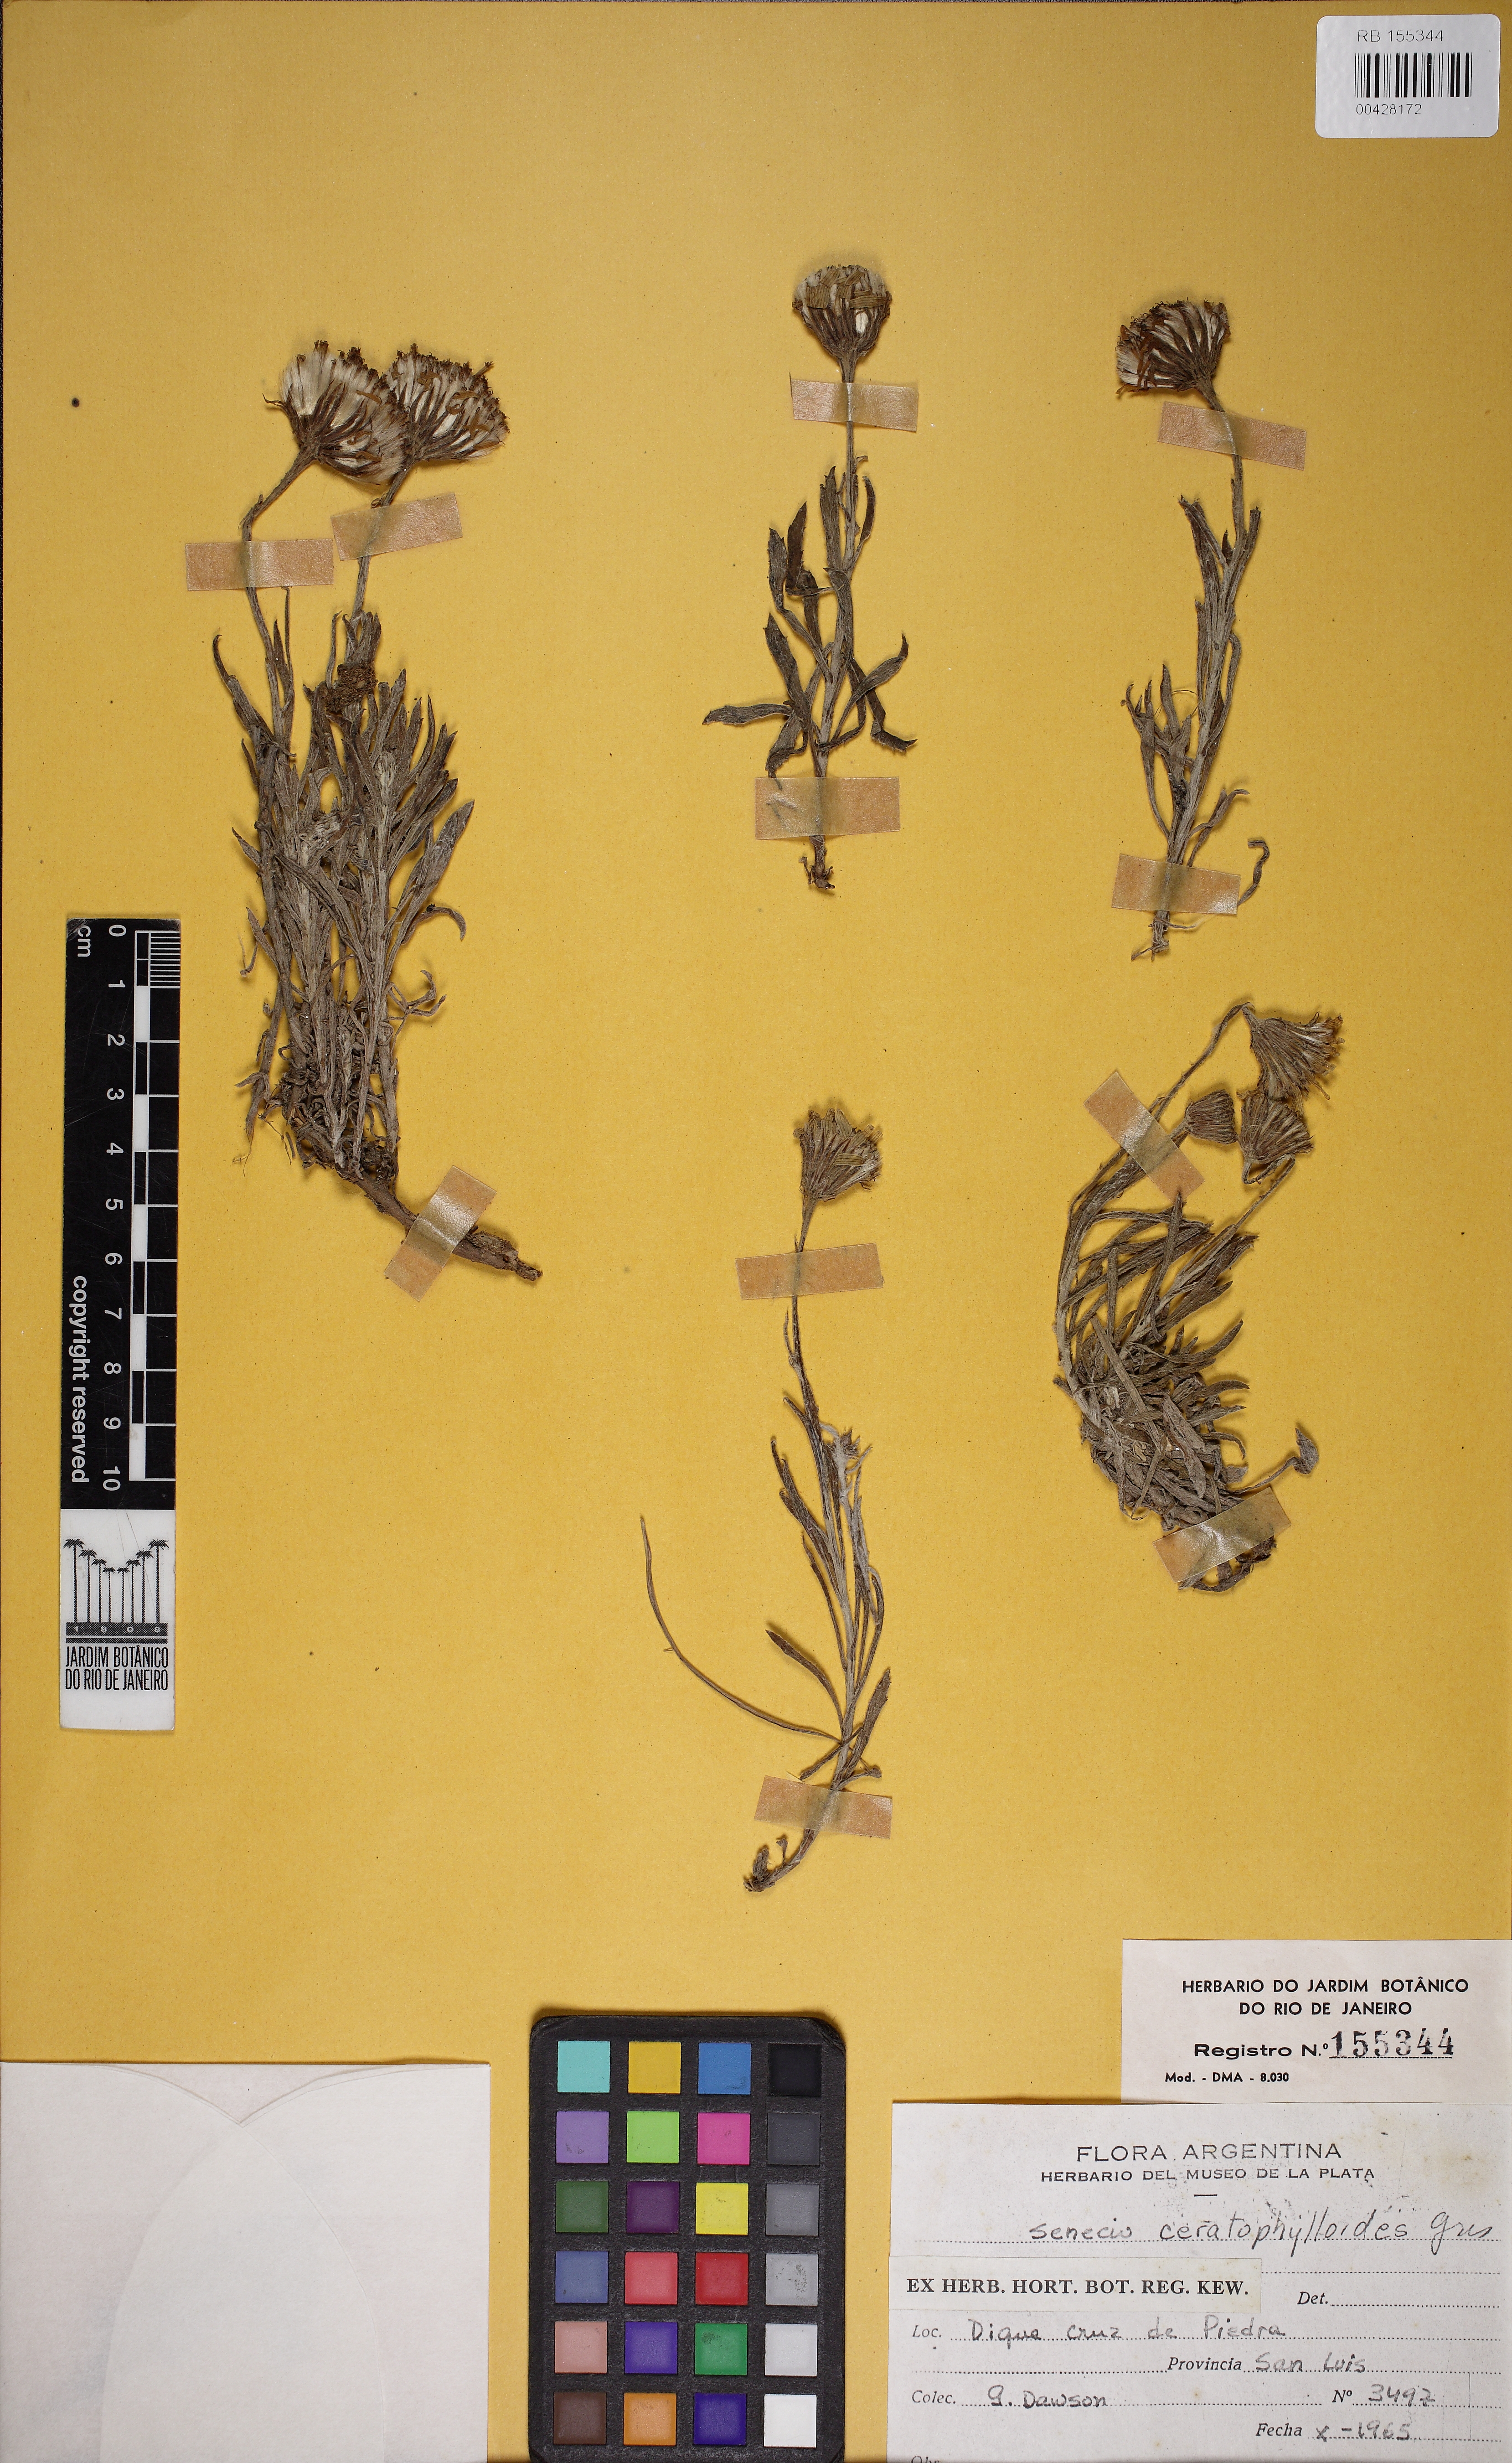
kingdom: Plantae
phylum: Tracheophyta
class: Magnoliopsida
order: Asterales
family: Asteraceae
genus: Senecio
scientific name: Senecio ceratophylloides
